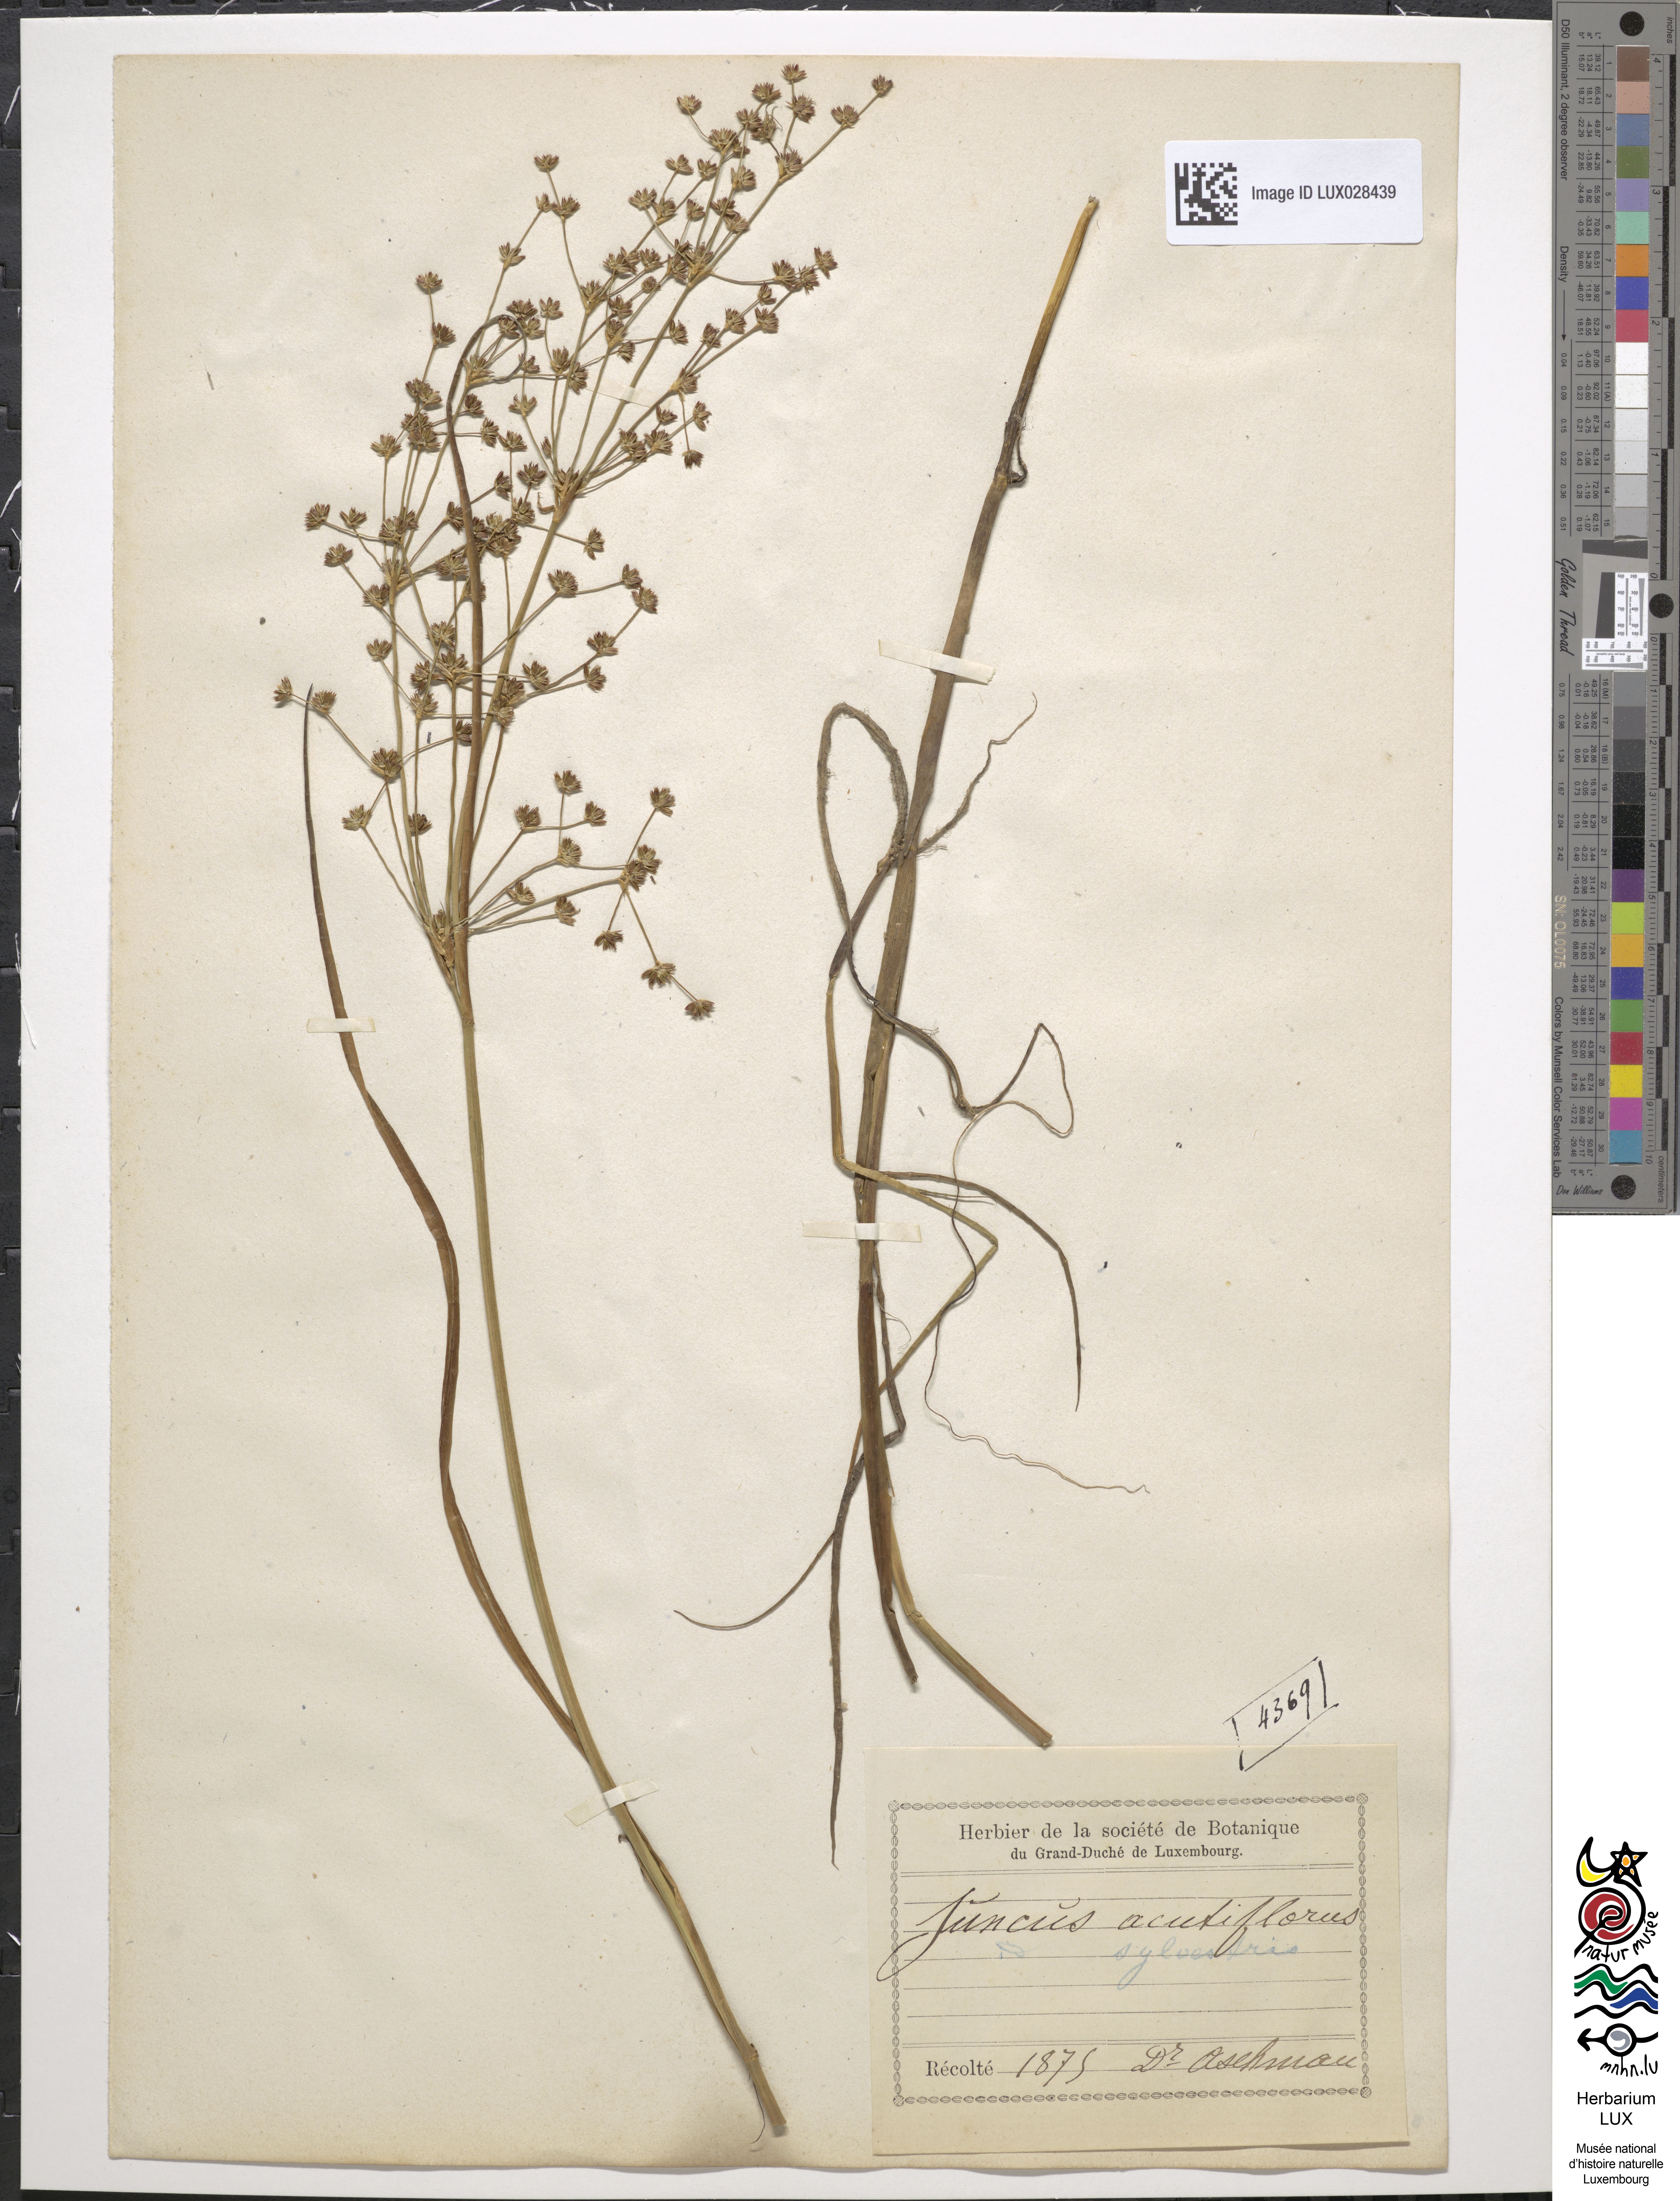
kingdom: Plantae
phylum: Tracheophyta
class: Liliopsida
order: Poales
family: Juncaceae
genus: Juncus
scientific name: Juncus acutiflorus
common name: Sharp-flowered rush
